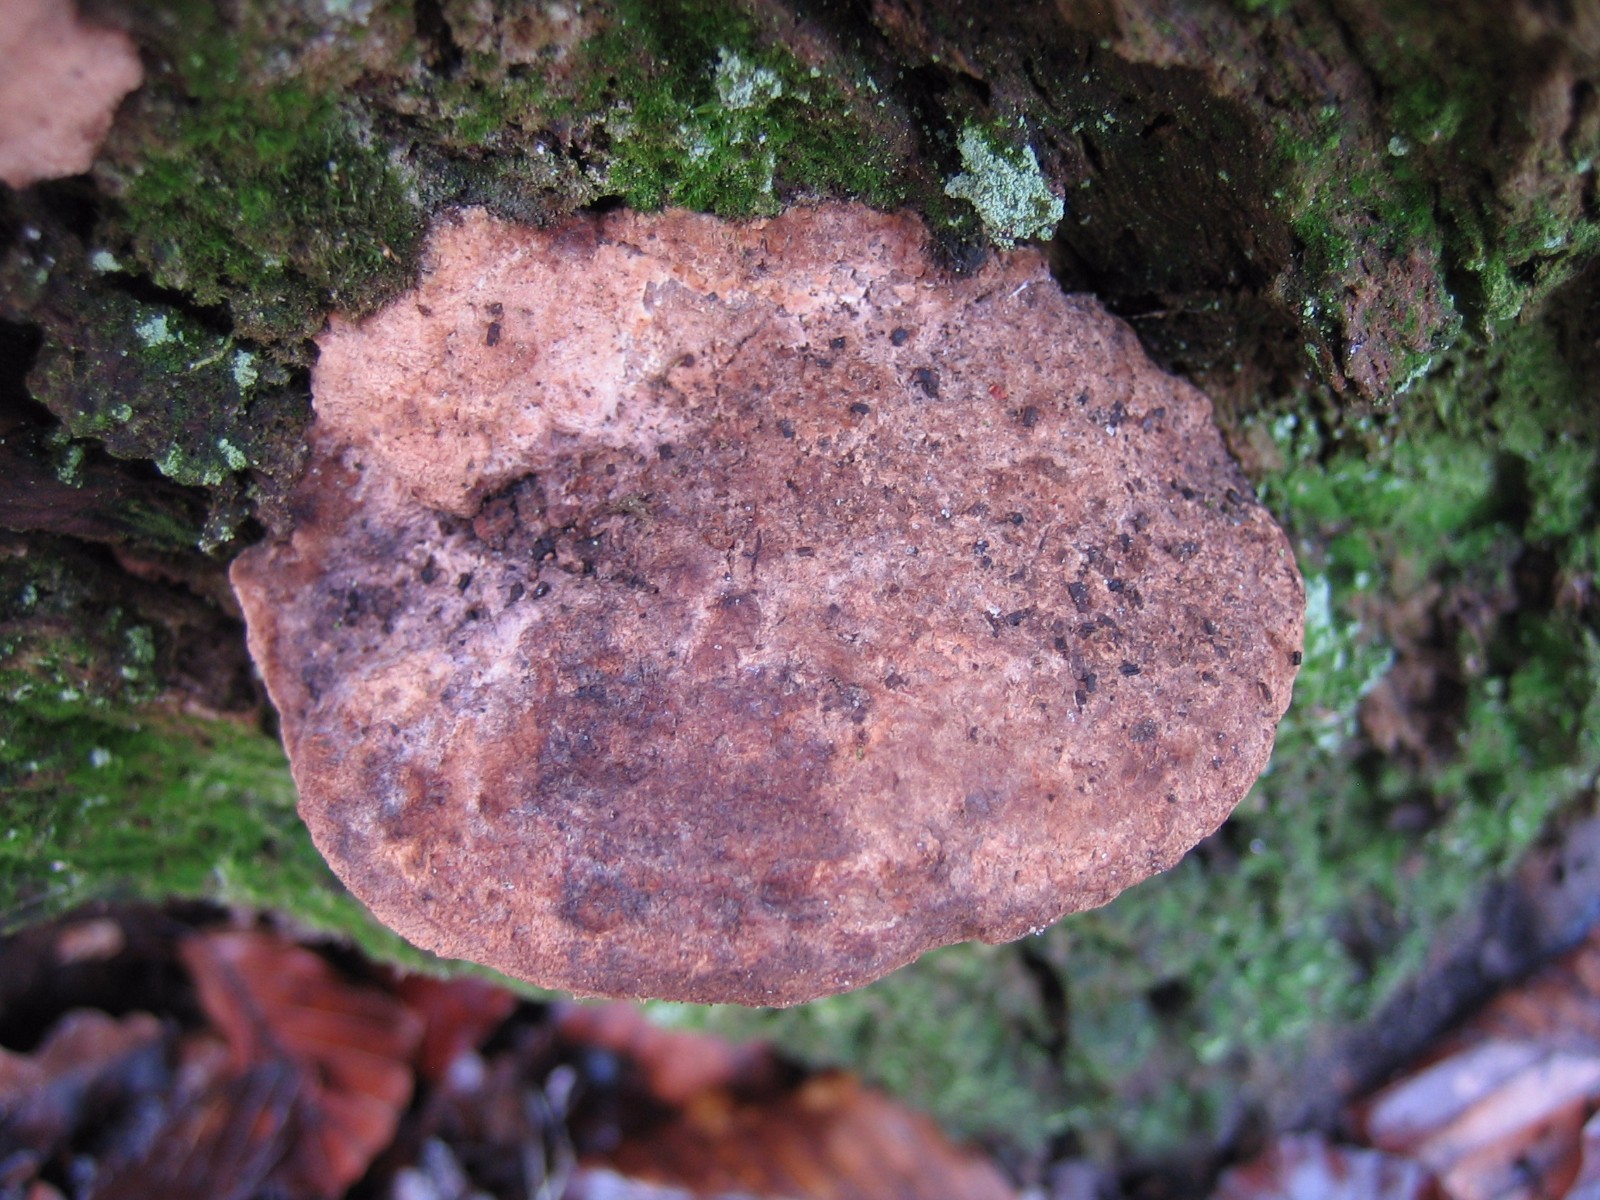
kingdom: Fungi
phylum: Basidiomycota
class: Agaricomycetes
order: Polyporales
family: Fomitopsidaceae
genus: Daedalea
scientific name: Daedalea quercina
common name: ege-labyrintsvamp
